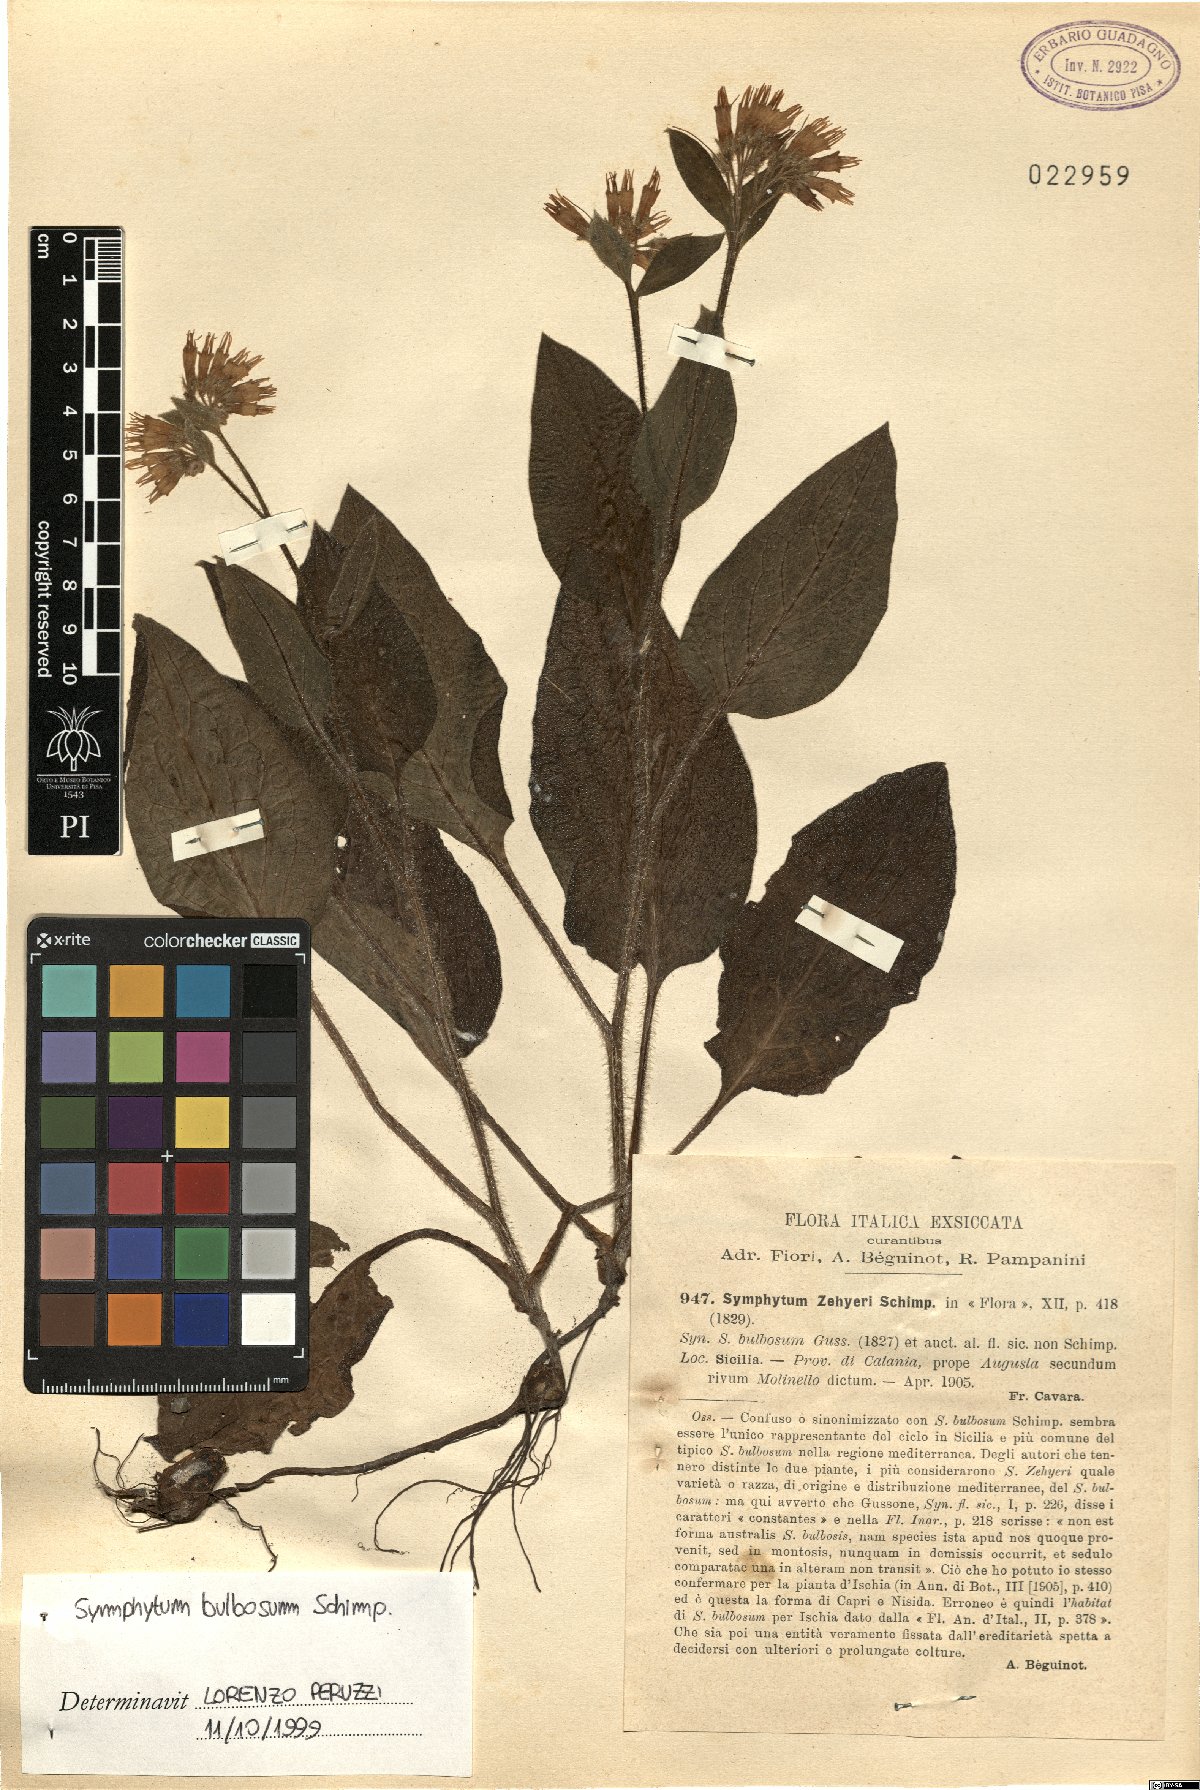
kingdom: Plantae
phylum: Tracheophyta
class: Magnoliopsida
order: Boraginales
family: Boraginaceae
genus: Symphytum
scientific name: Symphytum bulbosum
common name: Bulbous comfrey
